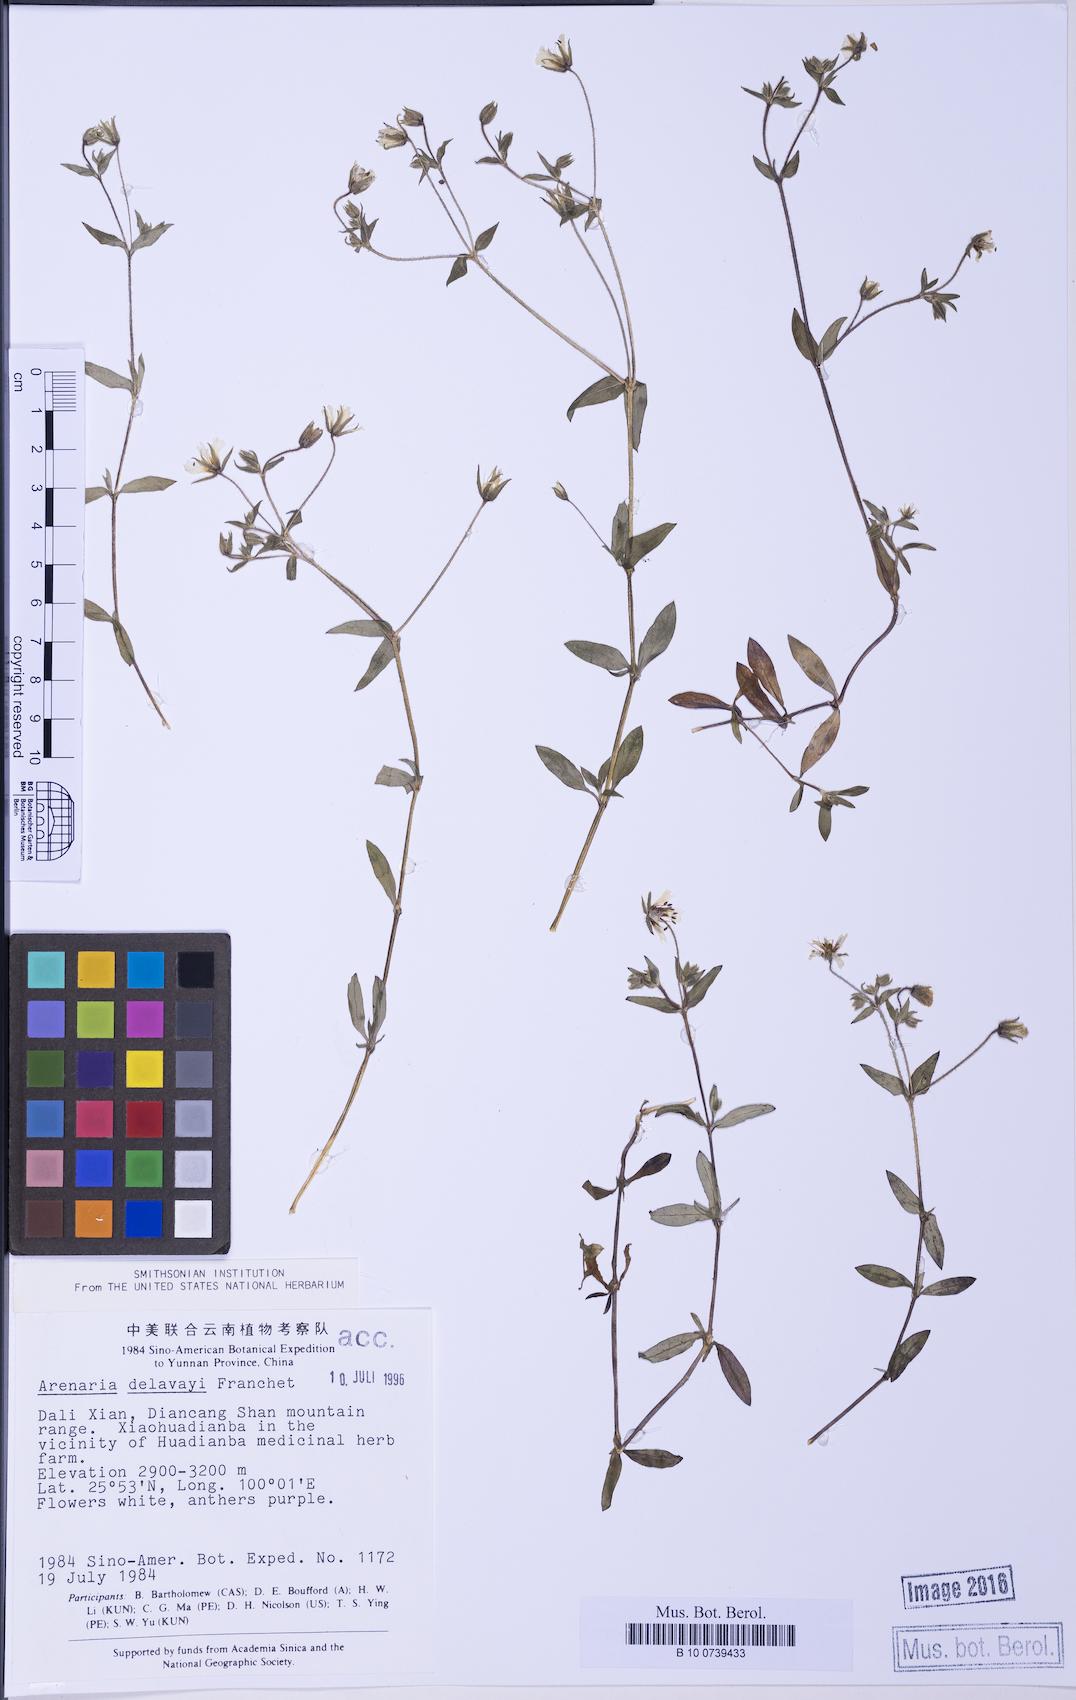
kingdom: Plantae
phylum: Tracheophyta
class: Magnoliopsida
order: Caryophyllales
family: Caryophyllaceae
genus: Odontostemma
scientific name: Odontostemma delavayi
